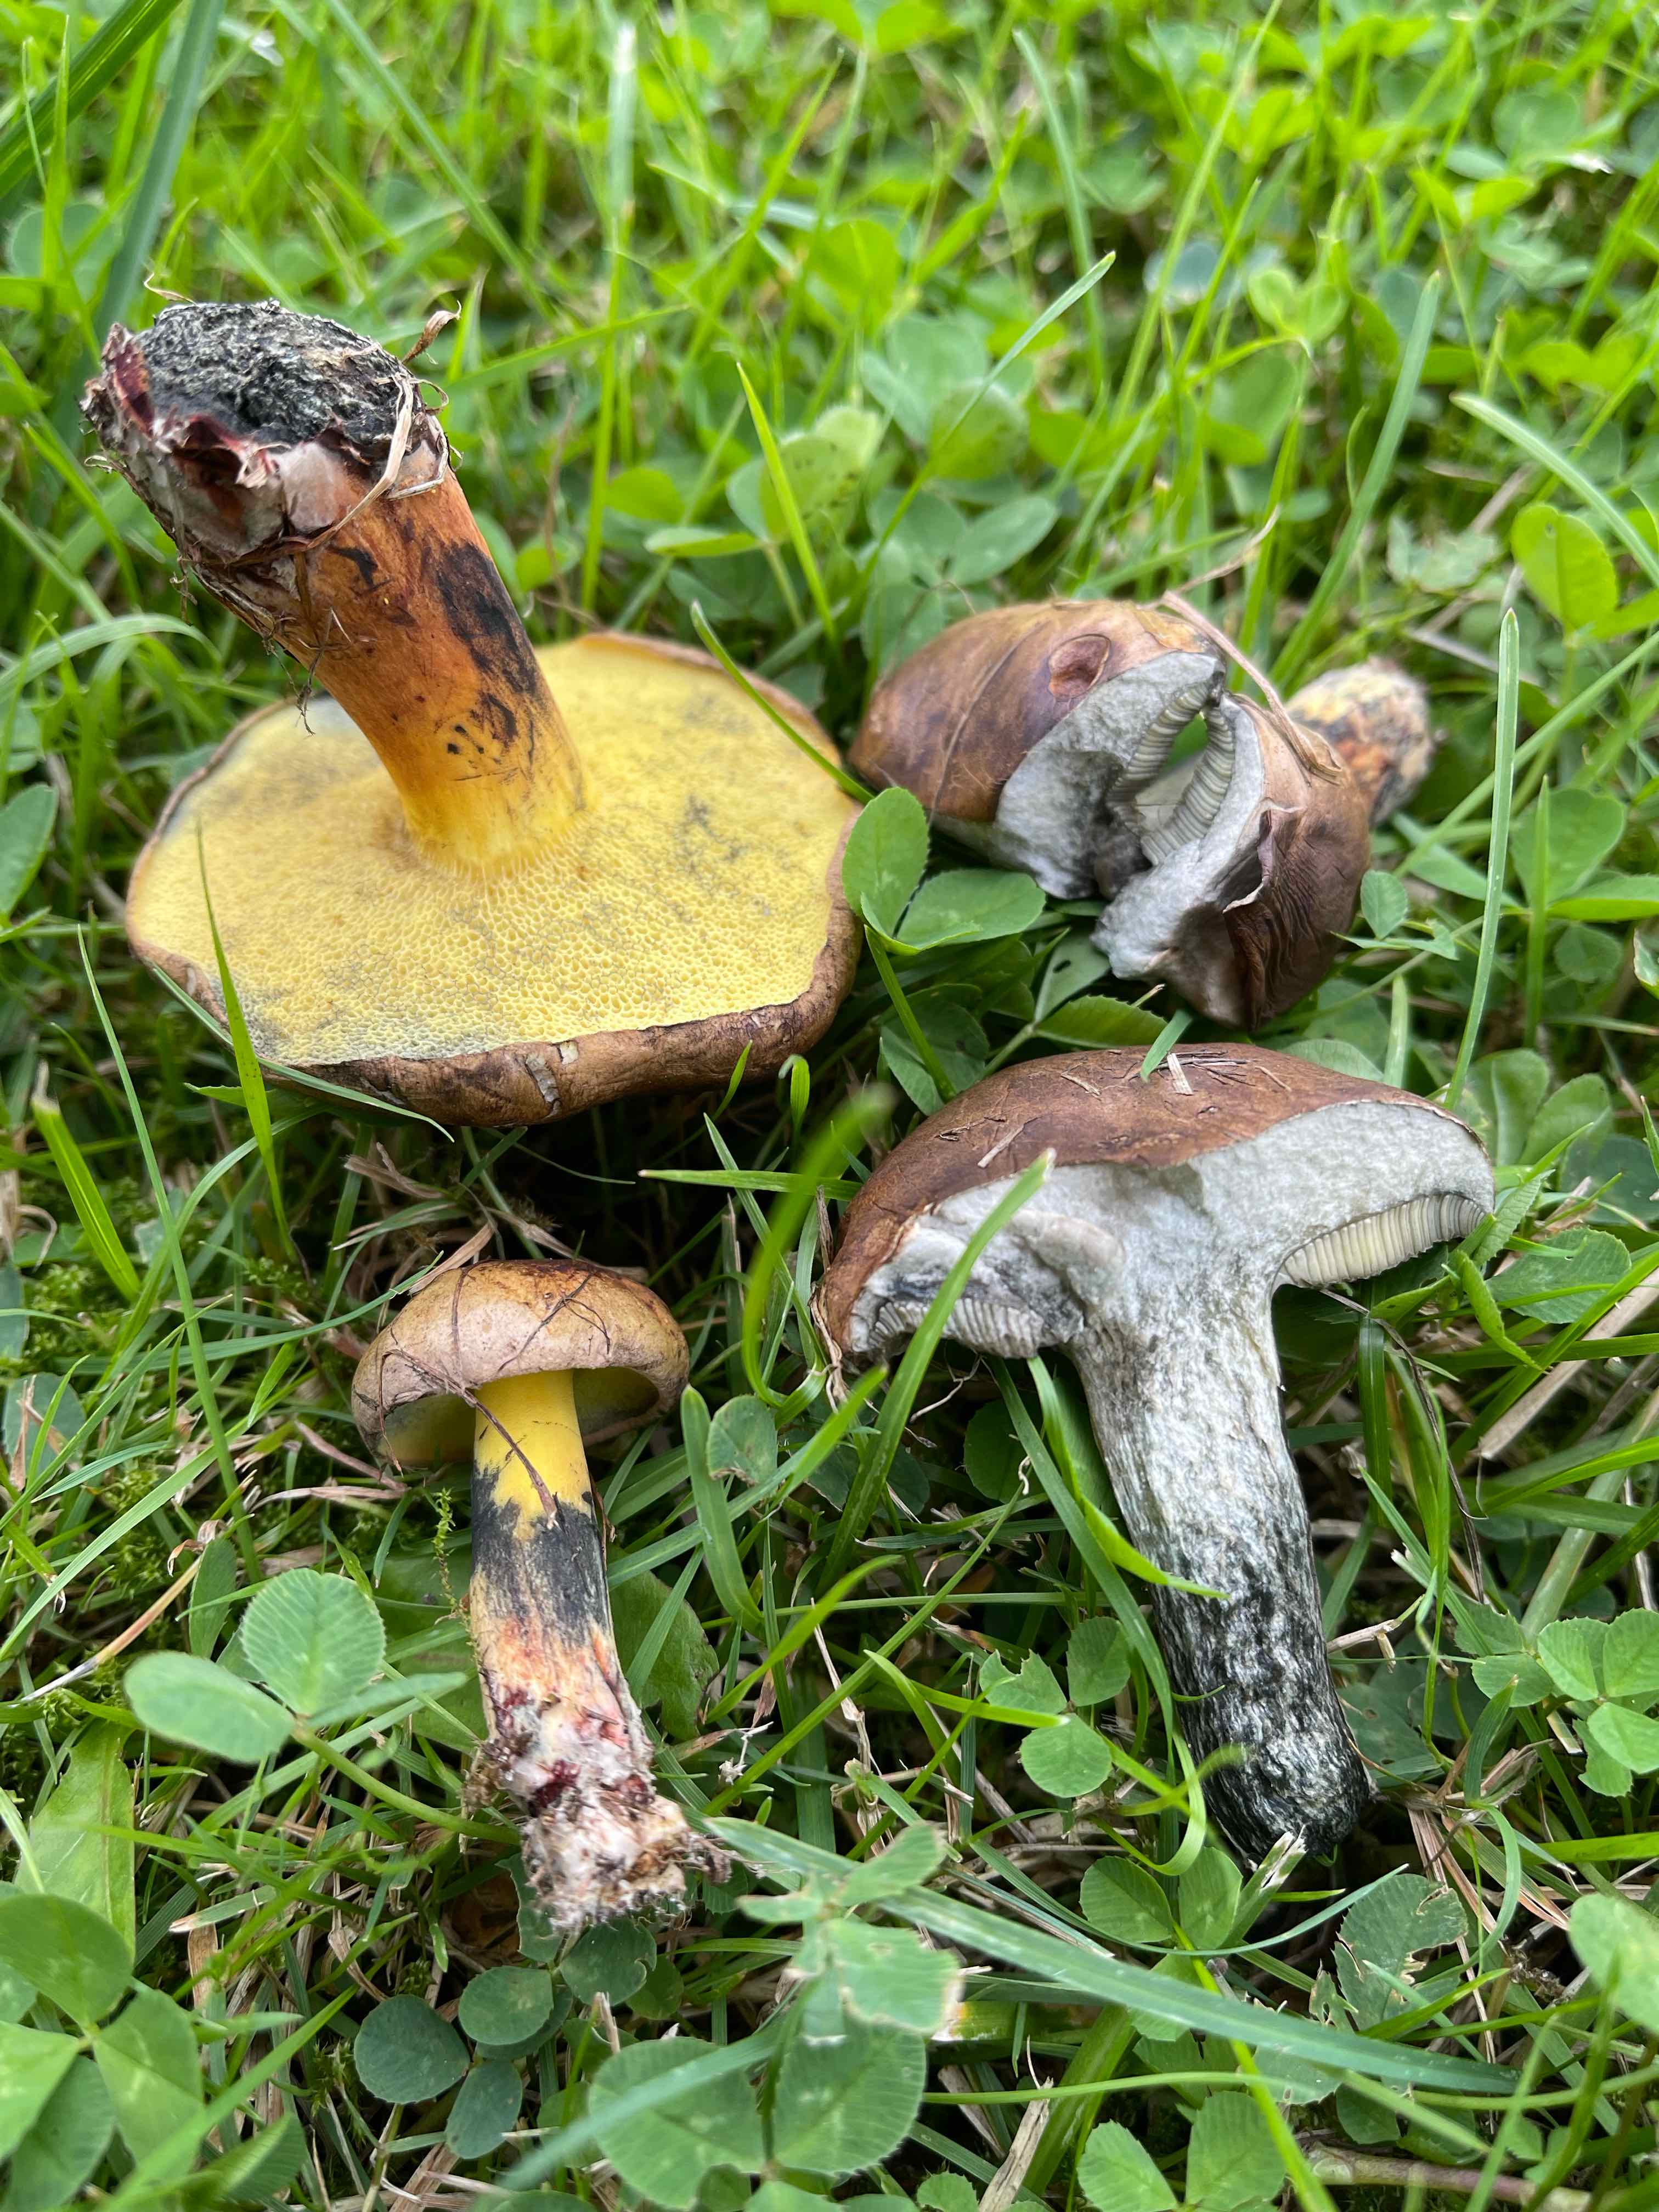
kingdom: Fungi
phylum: Basidiomycota
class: Agaricomycetes
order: Boletales
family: Boletaceae
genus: Cyanoboletus
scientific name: Cyanoboletus pulverulentus
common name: sortblånende rørhat
